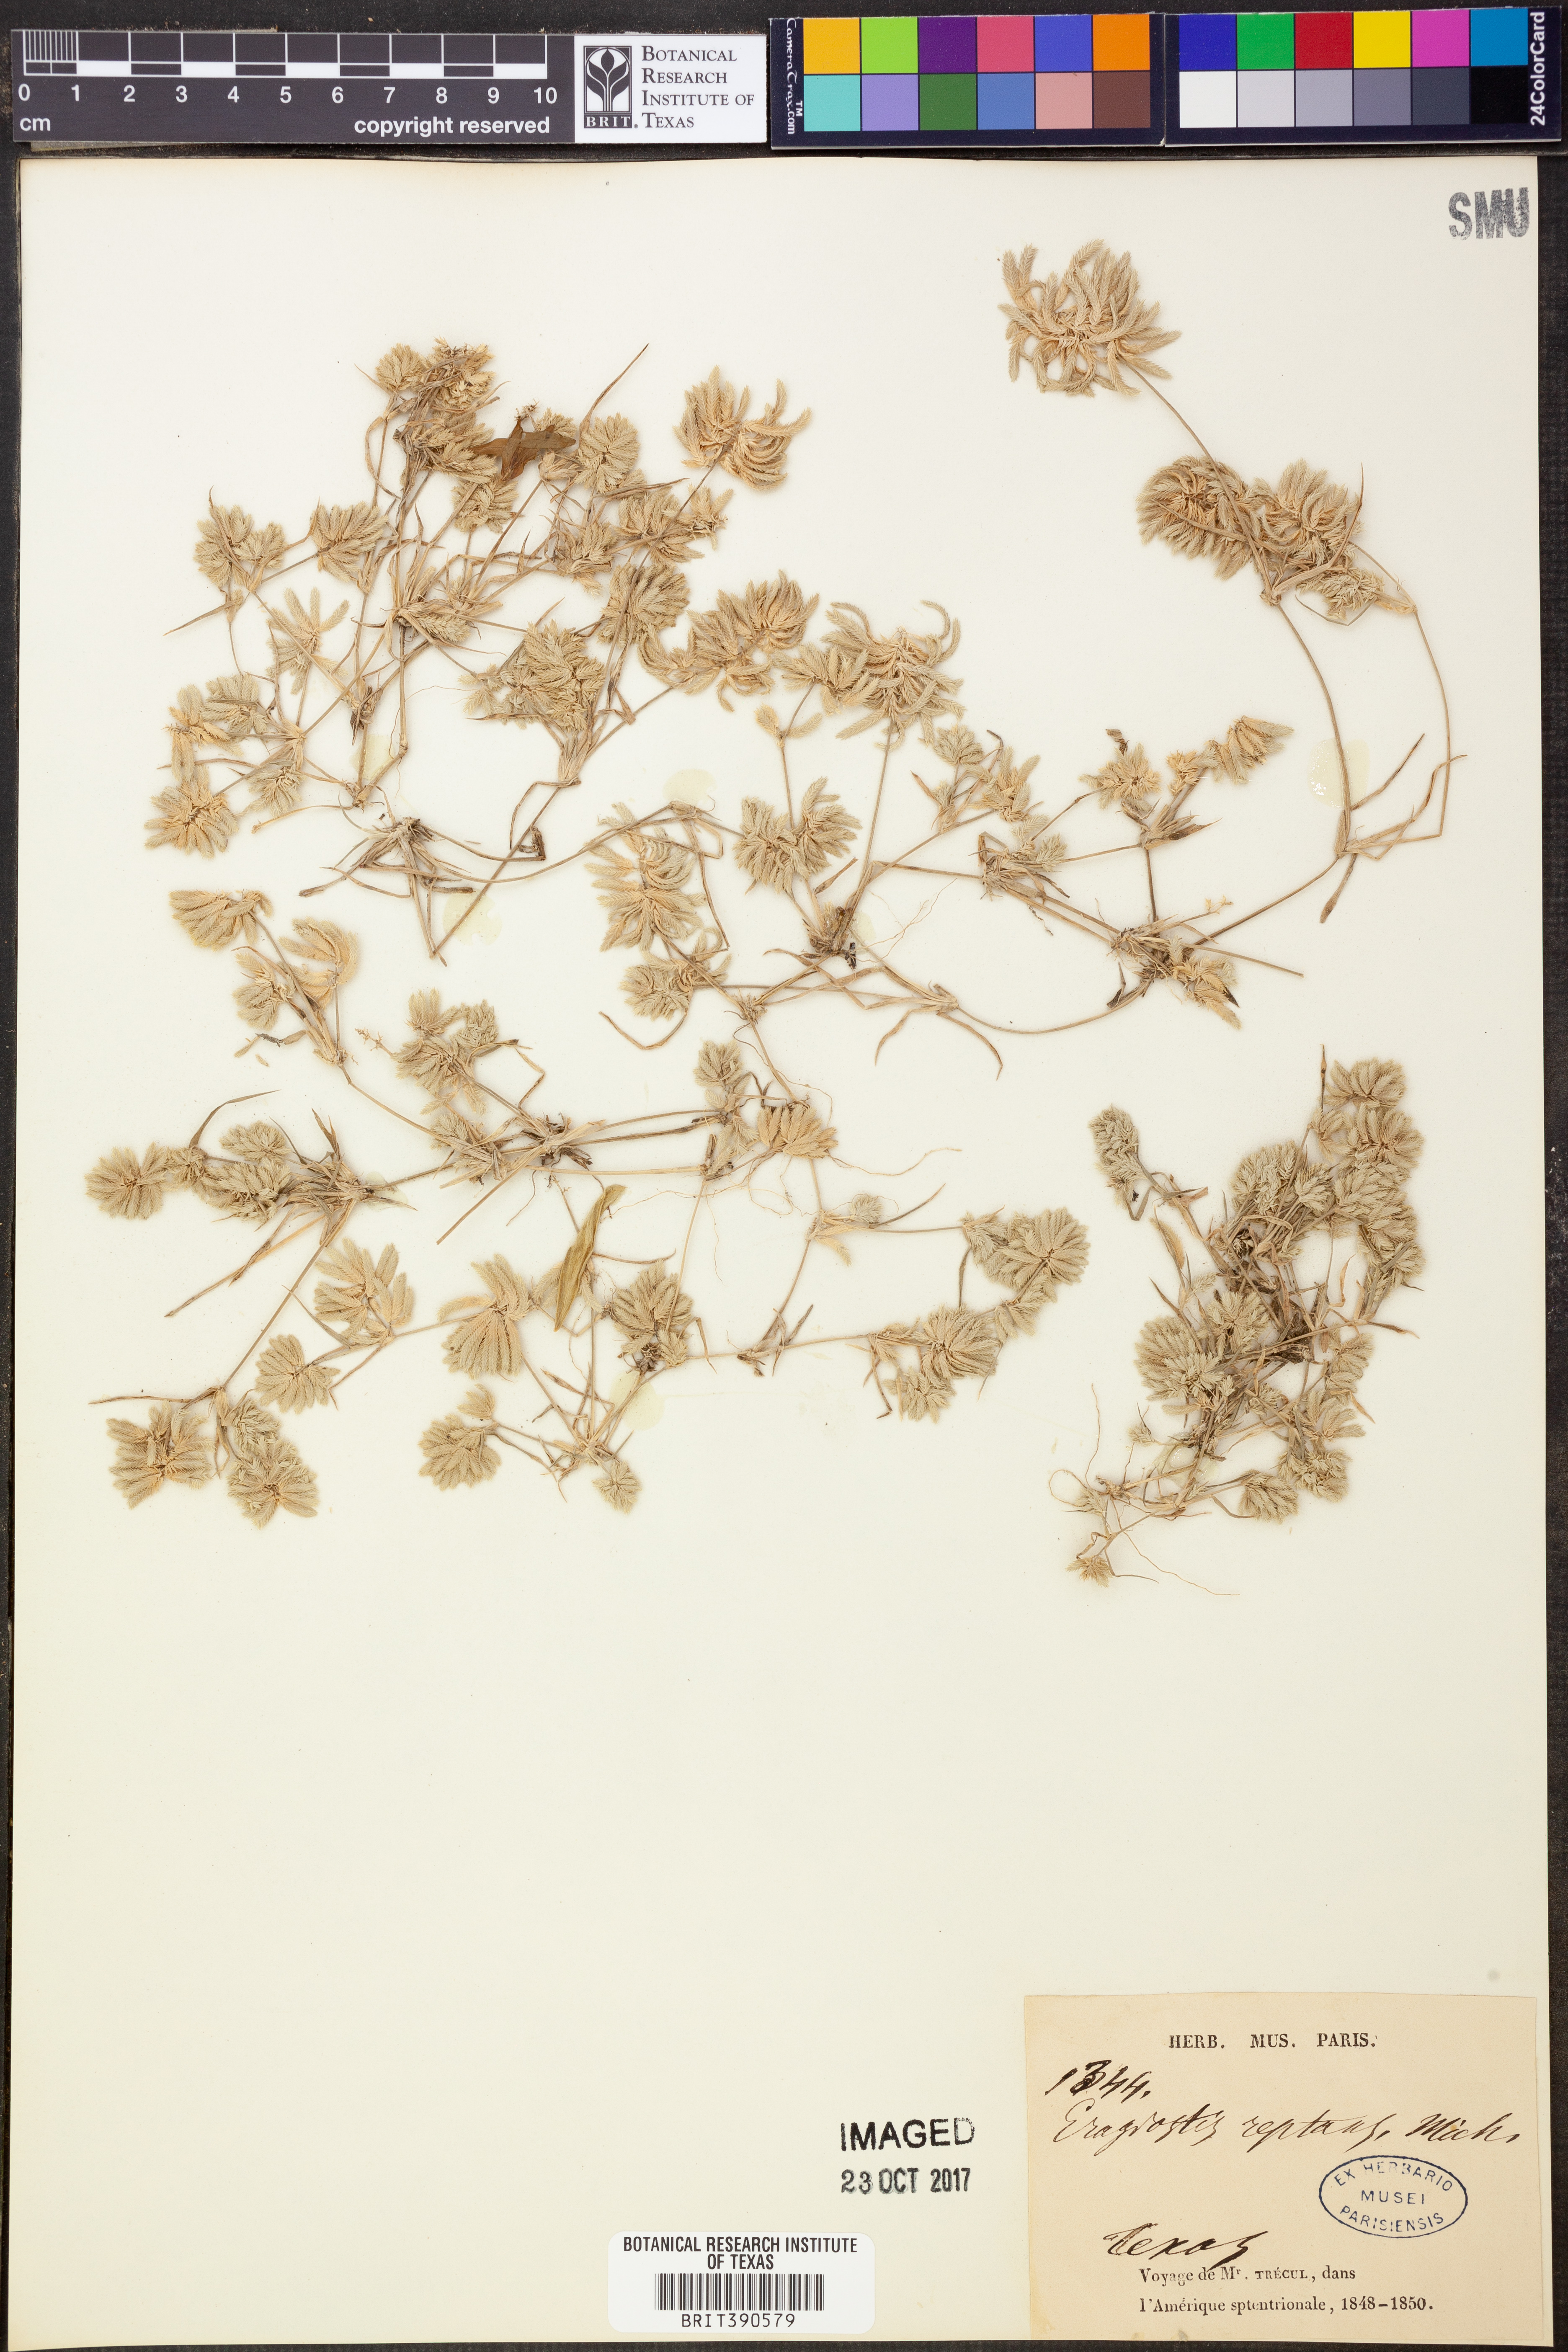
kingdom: Plantae
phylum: Tracheophyta
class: Liliopsida
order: Poales
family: Poaceae
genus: Eragrostis
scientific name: Eragrostis reptans
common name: Creeping love grass
